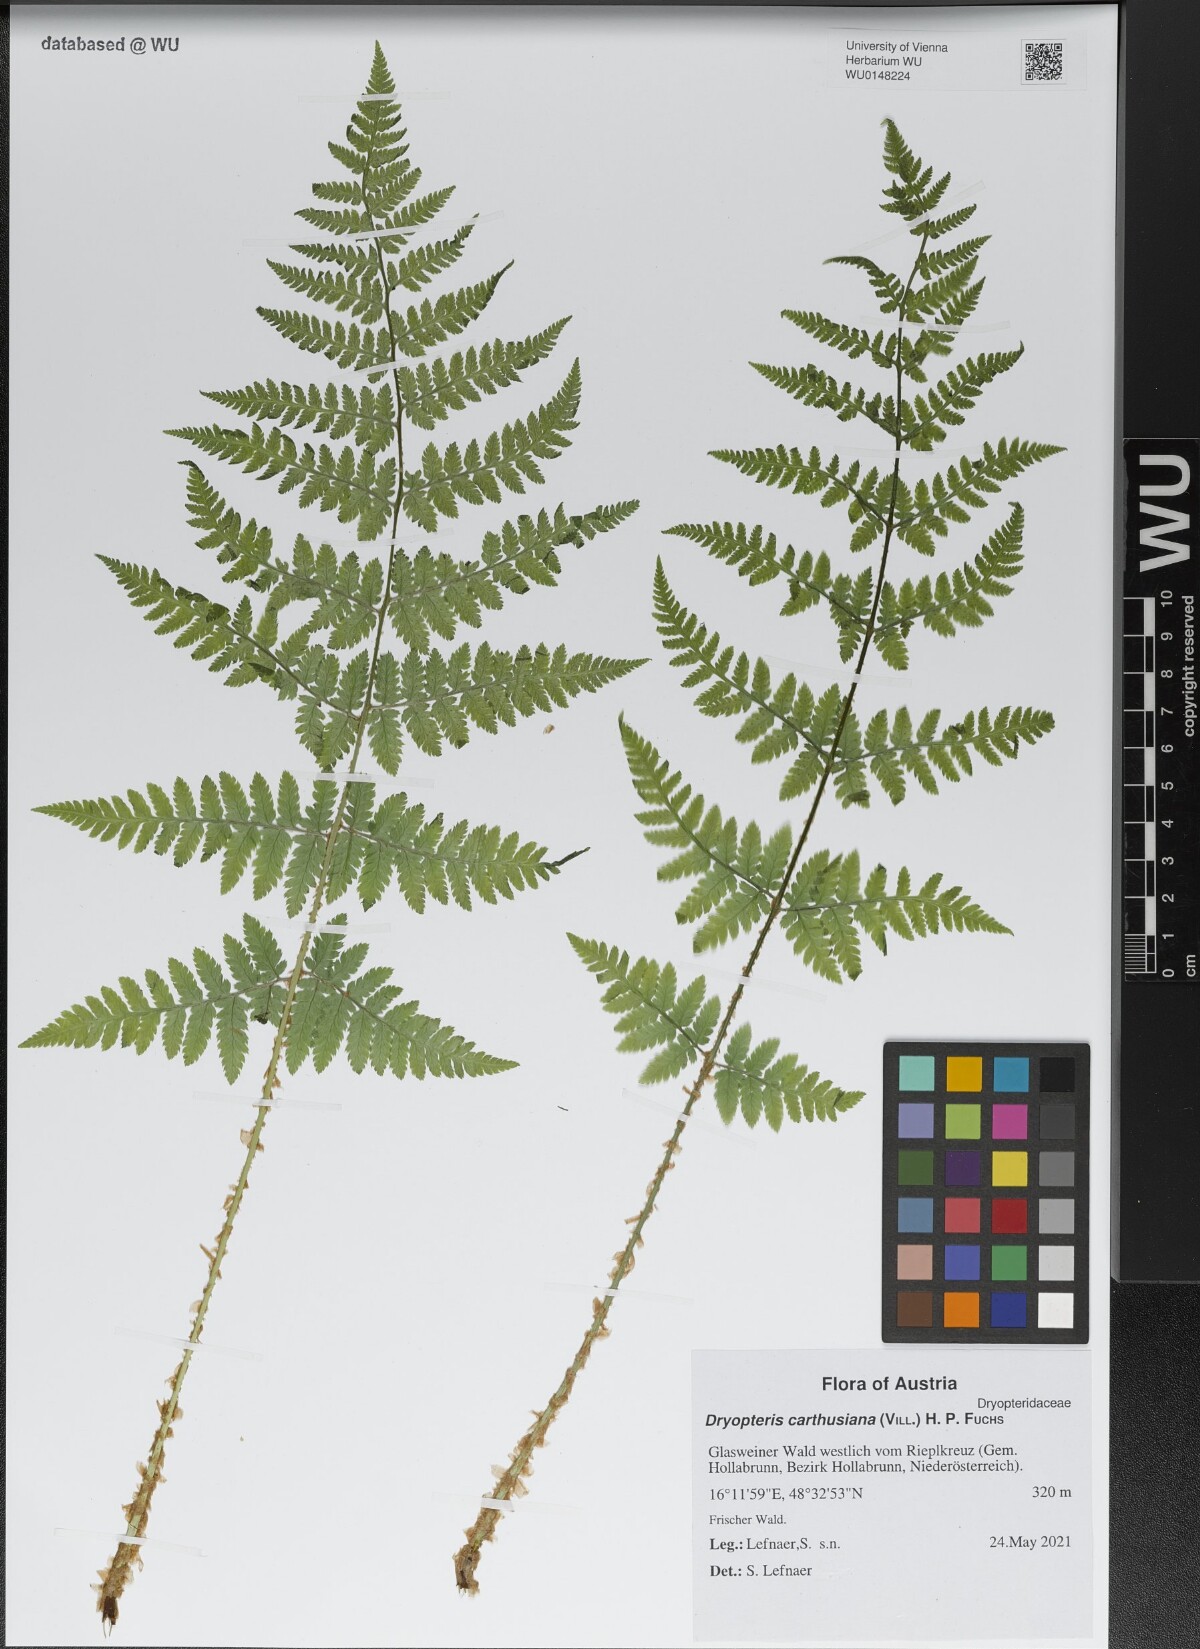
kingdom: Plantae
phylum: Tracheophyta
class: Polypodiopsida
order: Polypodiales
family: Dryopteridaceae
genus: Dryopteris
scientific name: Dryopteris carthusiana
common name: Narrow buckler-fern
